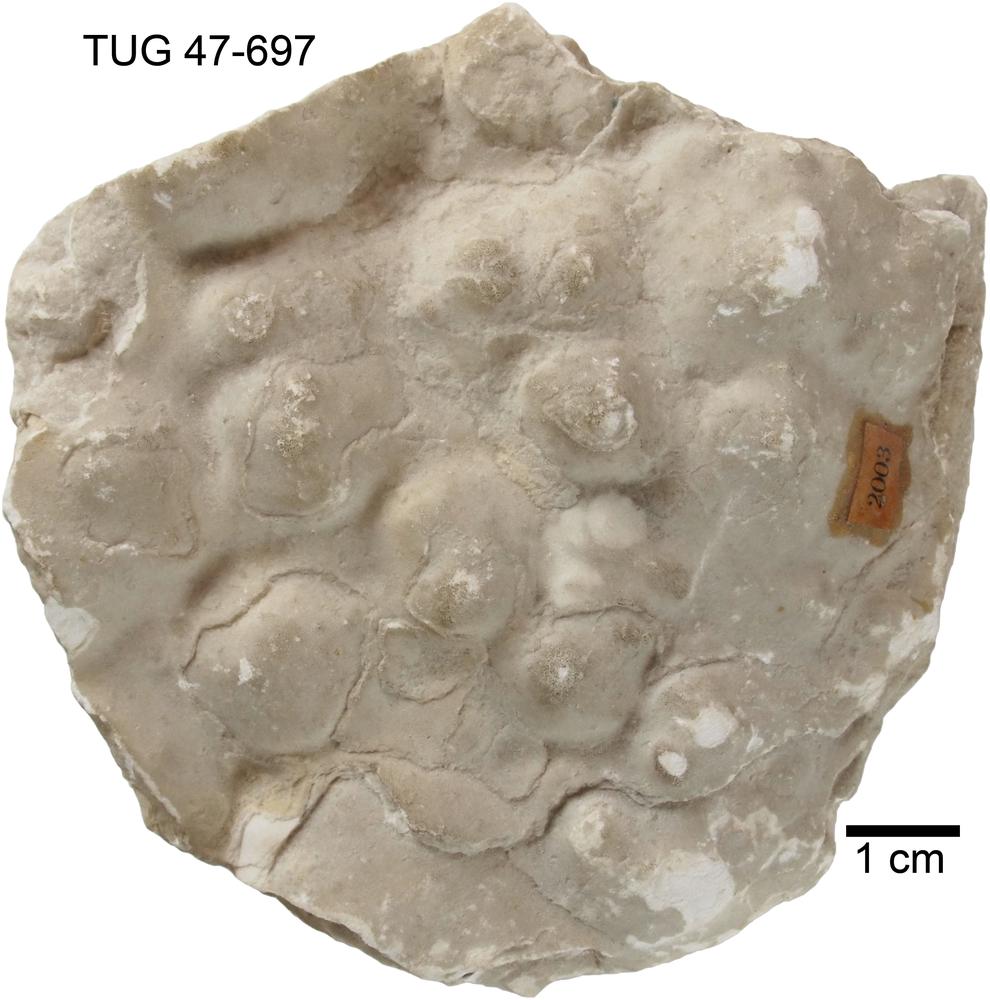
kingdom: Animalia
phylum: Porifera
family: Clathrodictyidae
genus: Clathrodictyon
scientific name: Clathrodictyon
